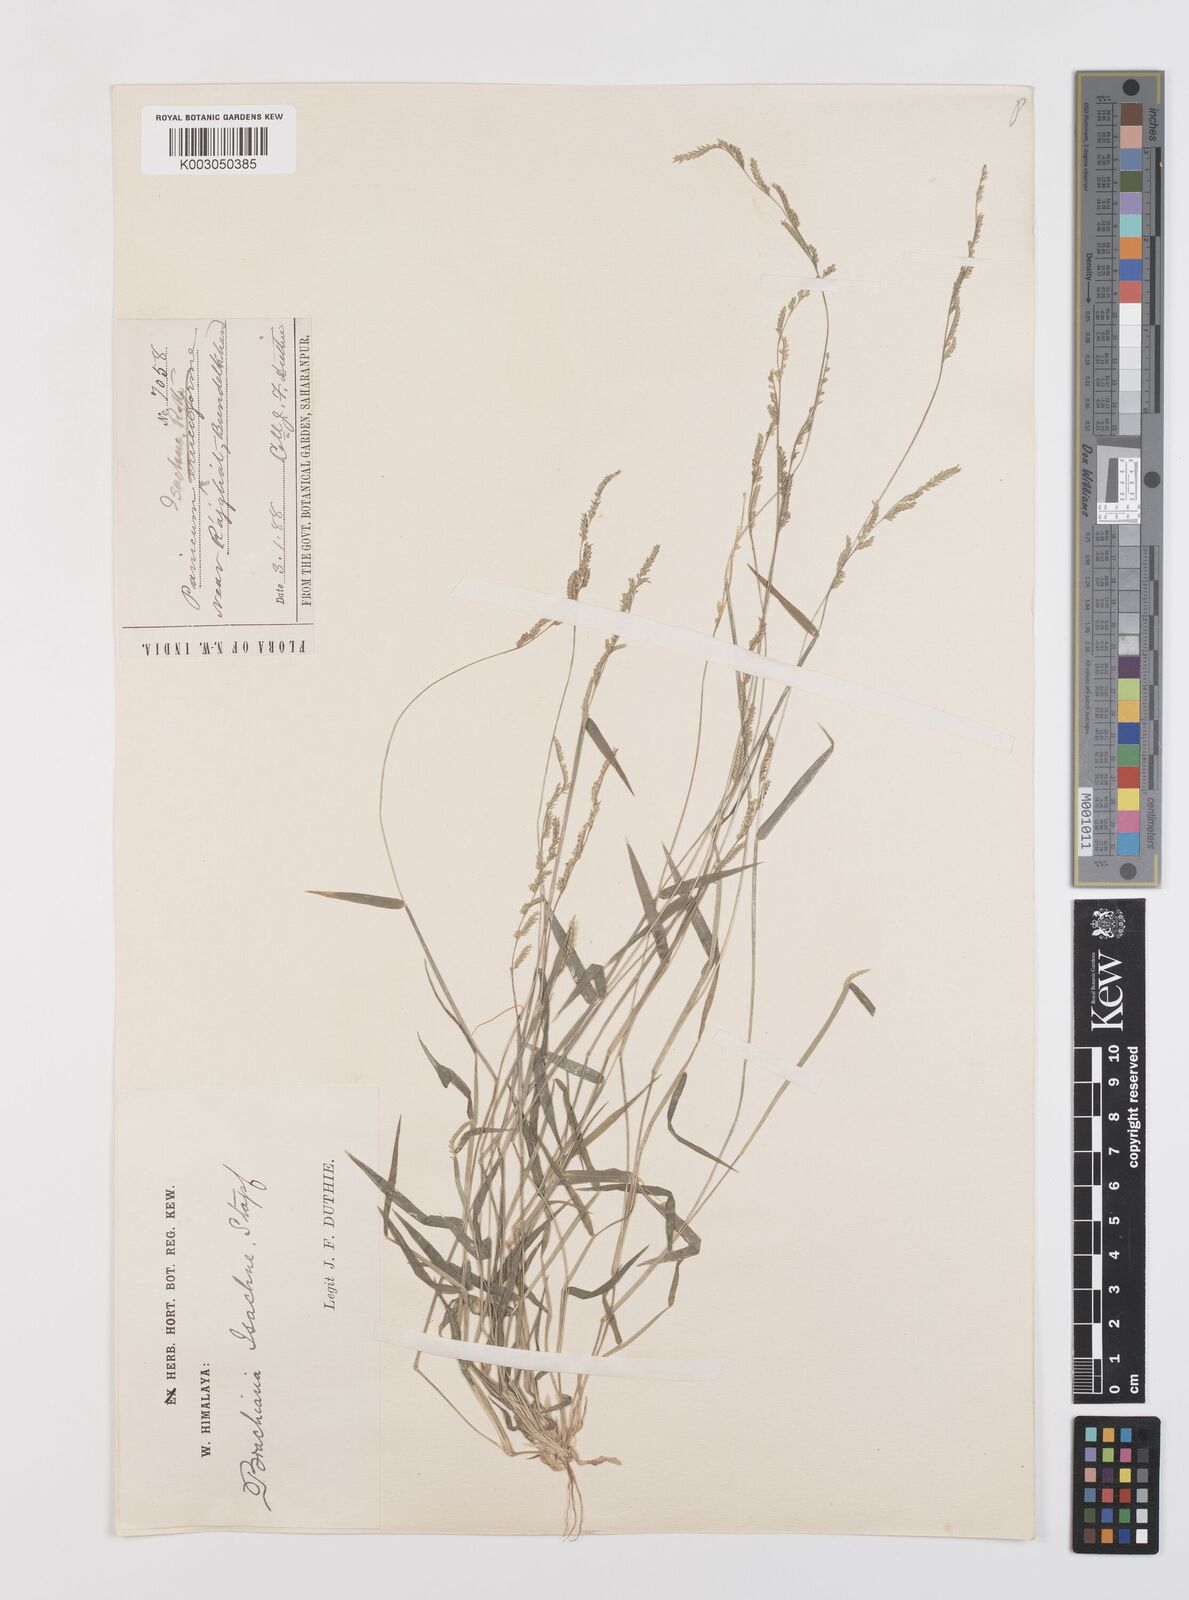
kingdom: Plantae
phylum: Tracheophyta
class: Liliopsida
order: Poales
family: Poaceae
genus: Moorochloa
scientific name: Moorochloa eruciformis
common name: Sweet signalgrass
